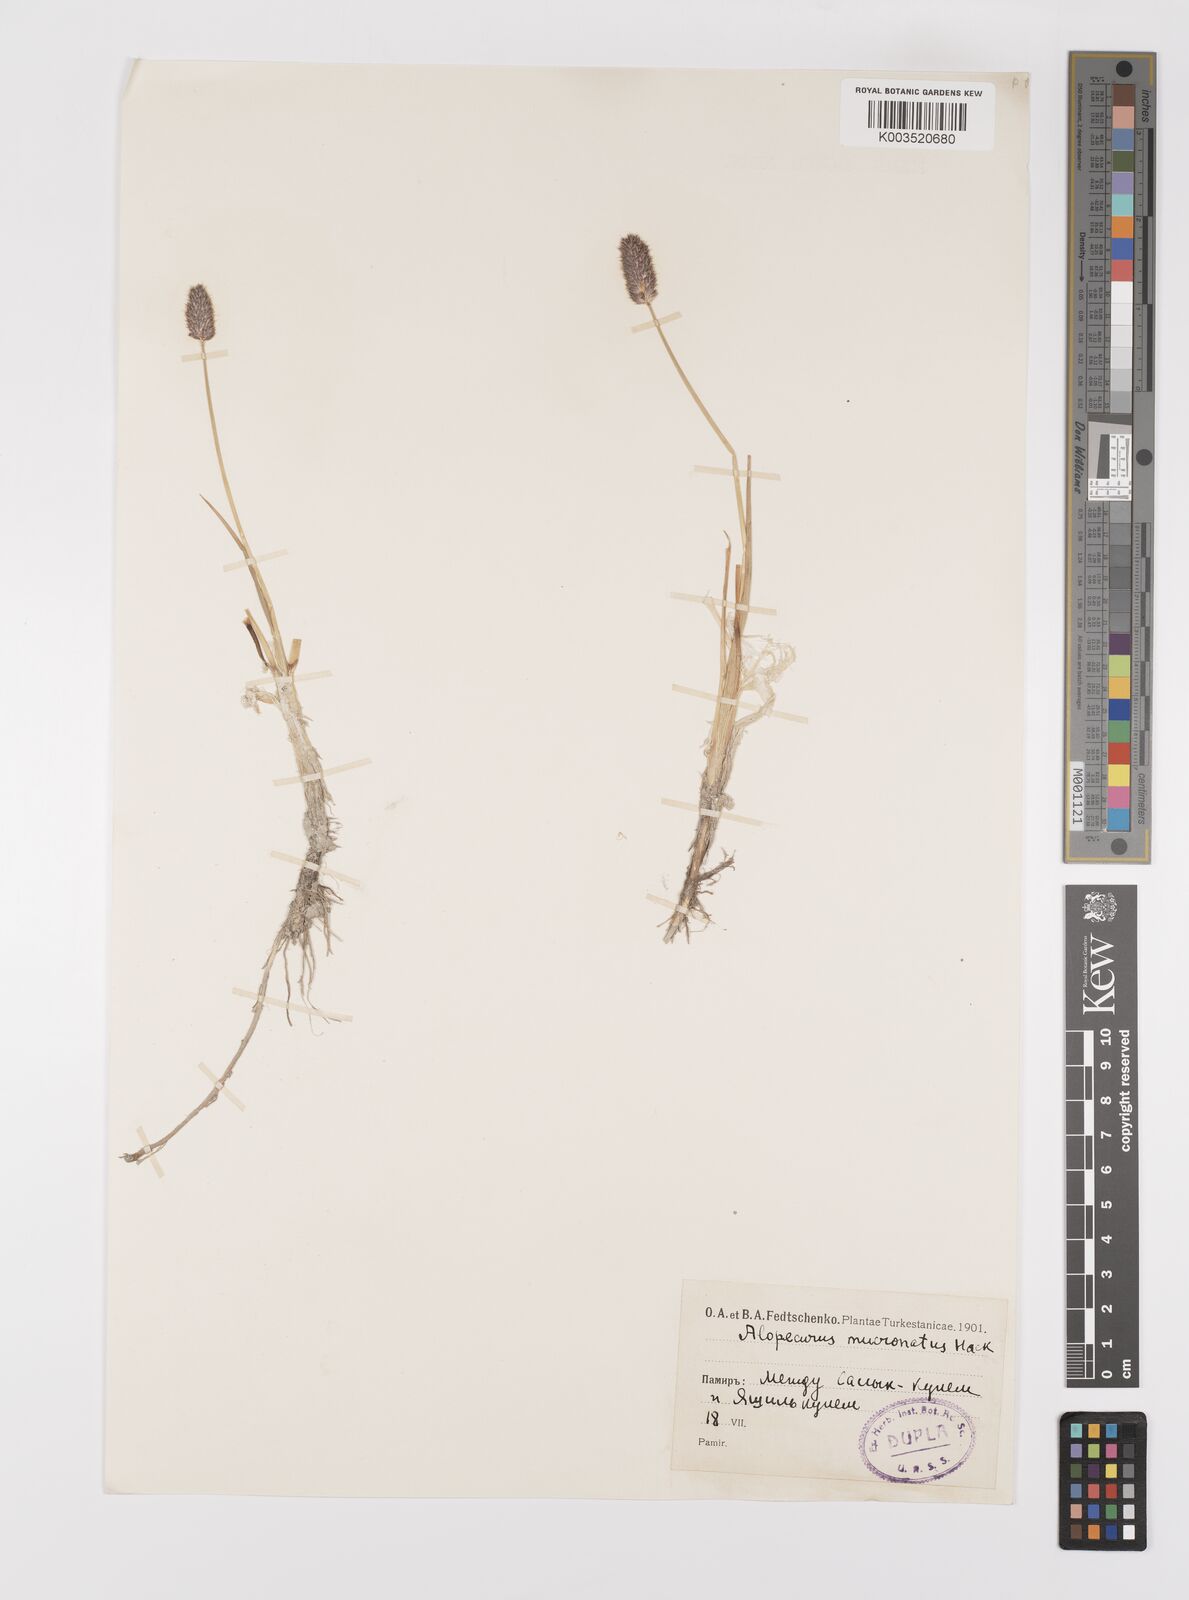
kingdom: Plantae
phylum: Tracheophyta
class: Liliopsida
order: Poales
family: Poaceae
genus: Alopecurus
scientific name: Alopecurus mucronatus
